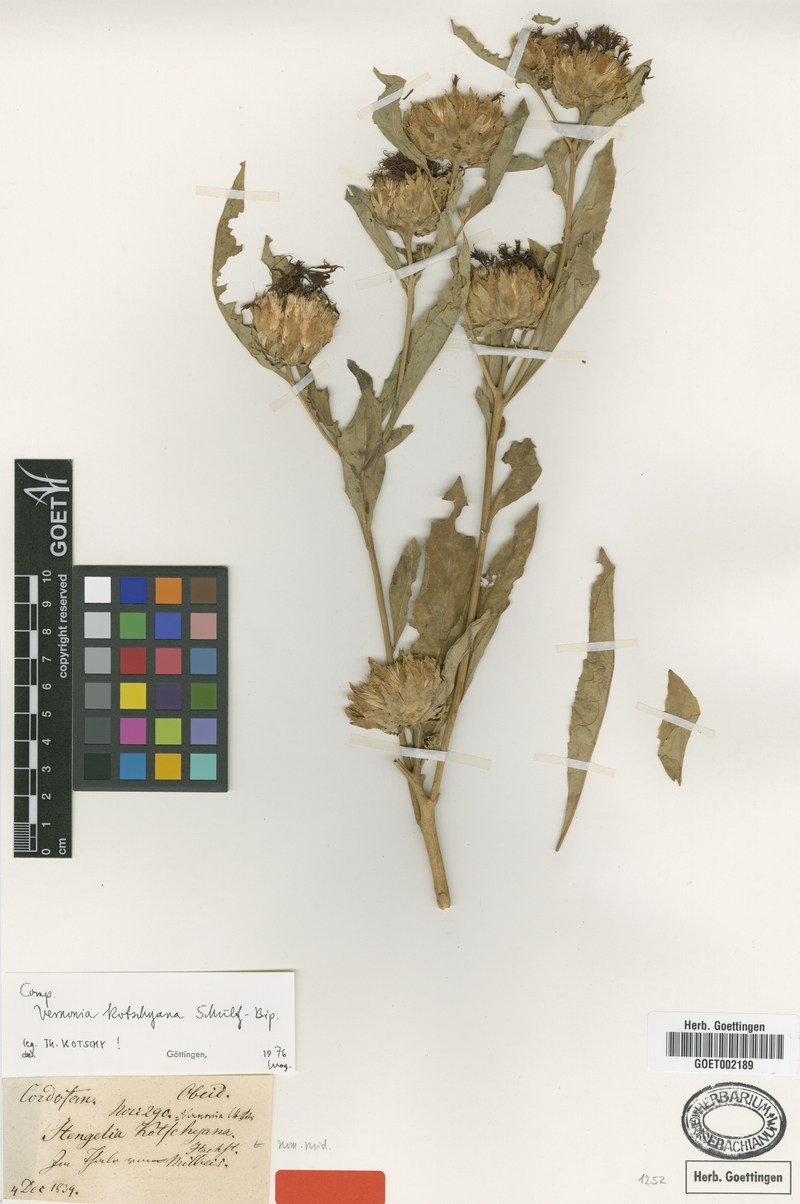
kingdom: Plantae
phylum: Tracheophyta
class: Magnoliopsida
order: Asterales
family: Asteraceae
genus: Baccharoides
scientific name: Baccharoides adoensis
